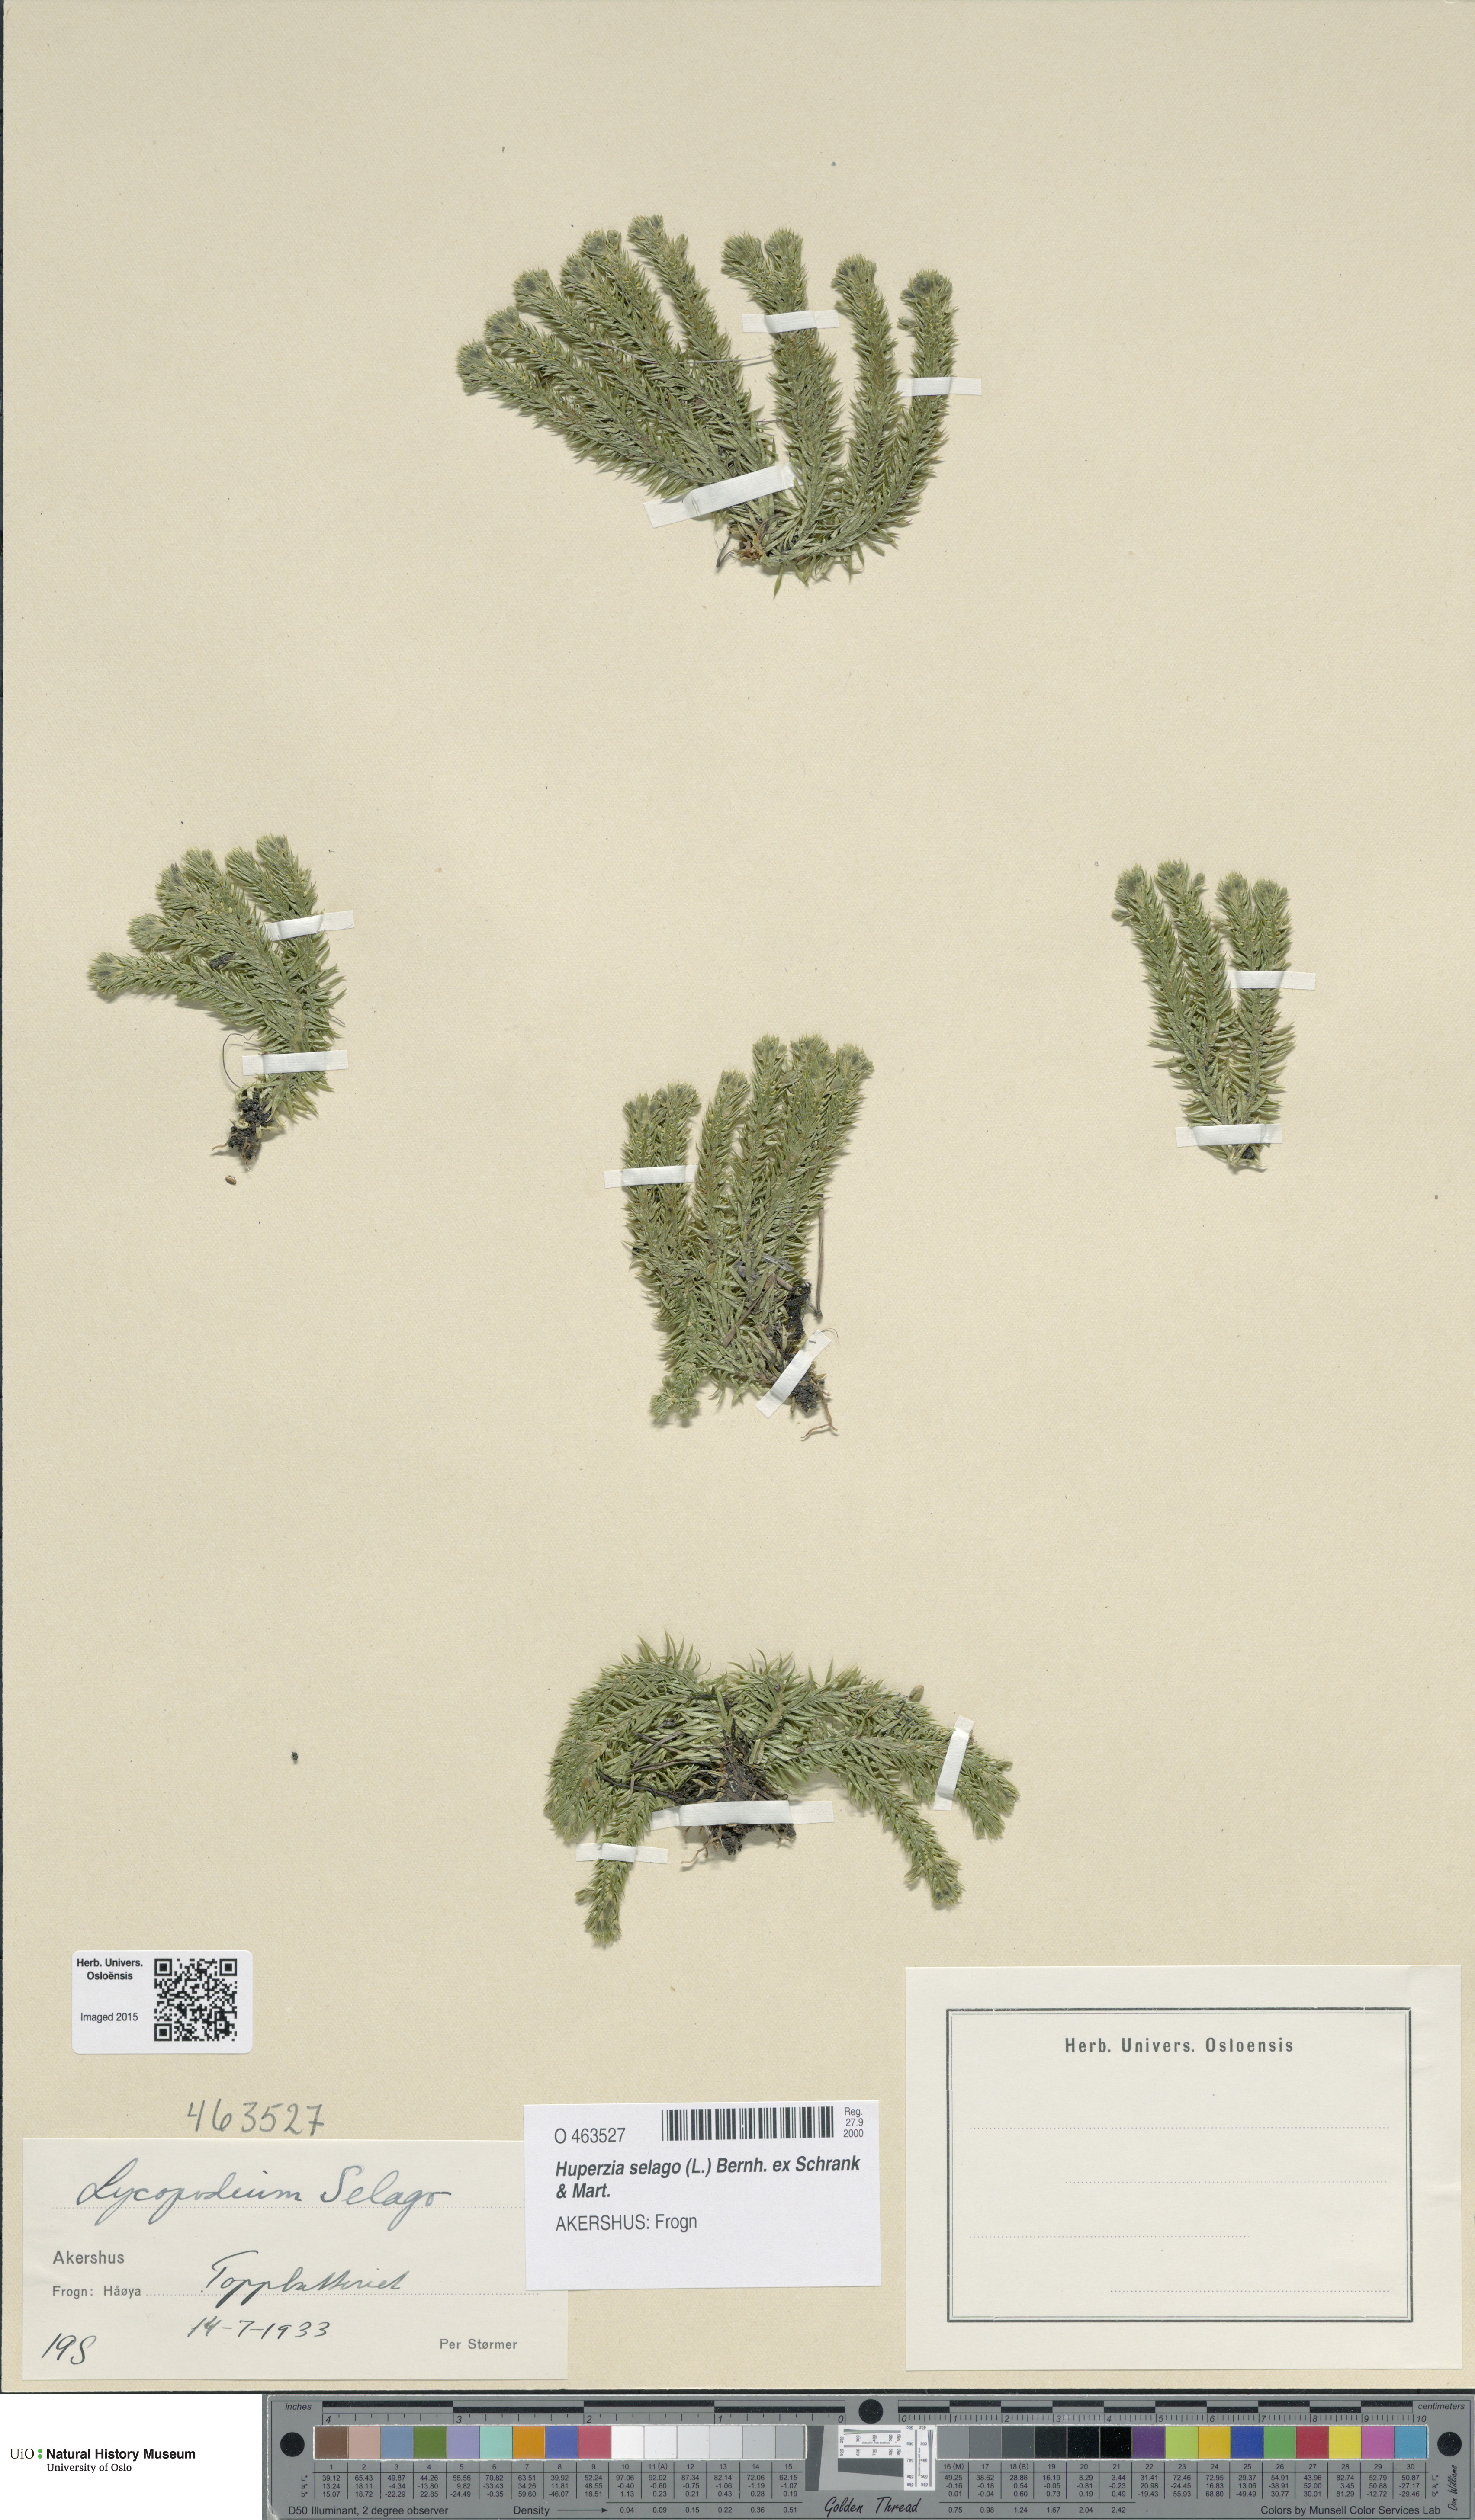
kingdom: Plantae
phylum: Tracheophyta
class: Lycopodiopsida
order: Lycopodiales
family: Lycopodiaceae
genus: Huperzia
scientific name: Huperzia selago
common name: Northern firmoss
